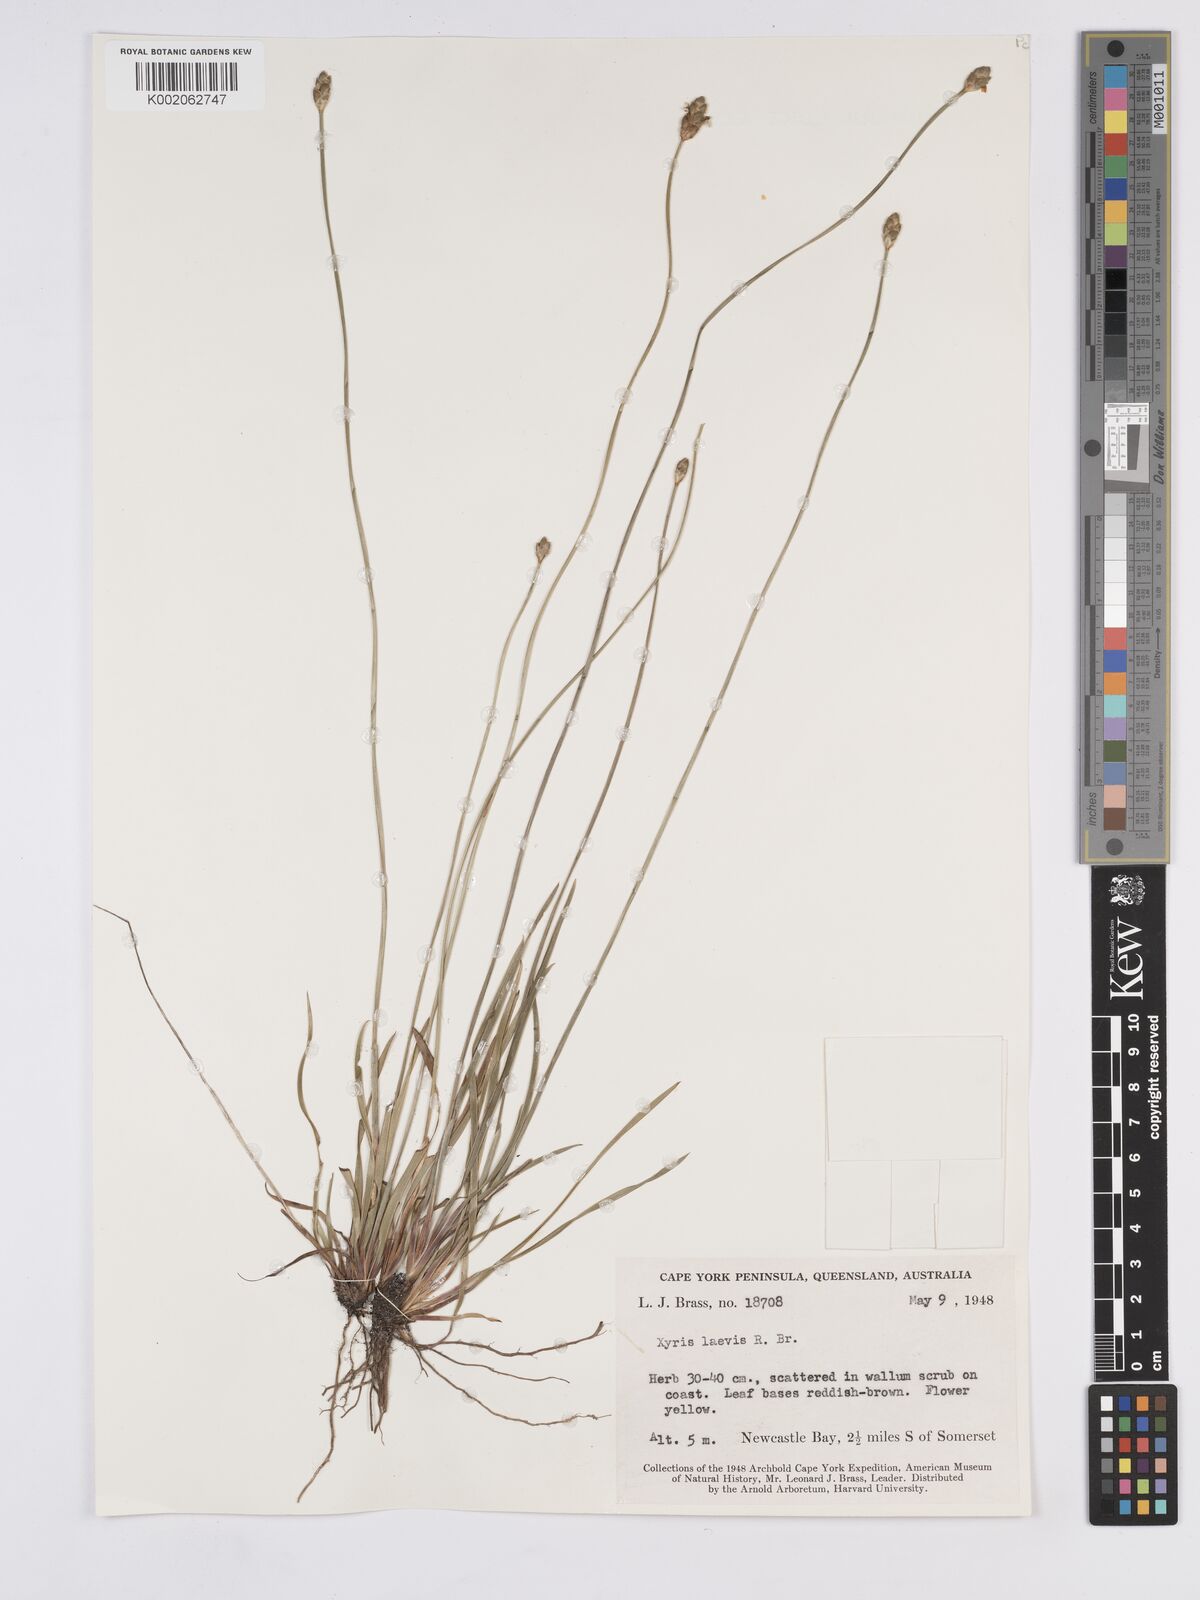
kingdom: Plantae
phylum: Tracheophyta
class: Liliopsida
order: Poales
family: Xyridaceae
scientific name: Xyridaceae
